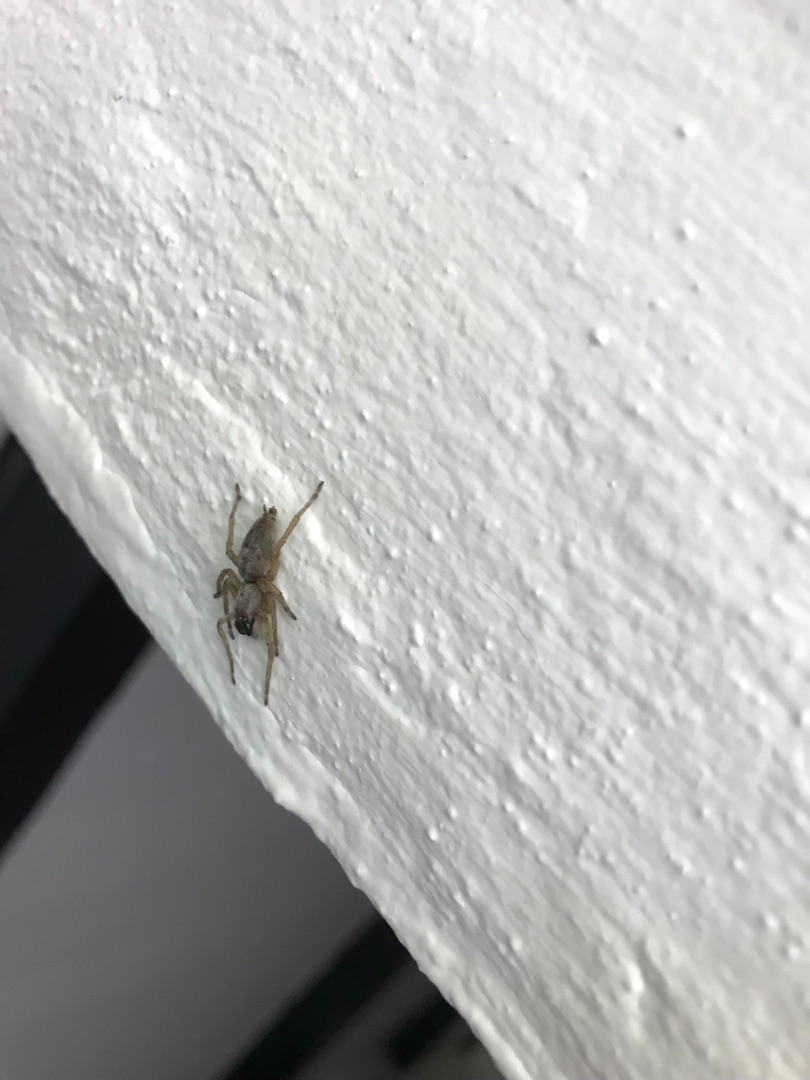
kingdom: Animalia
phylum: Arthropoda
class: Arachnida
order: Araneae
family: Clubionidae
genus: Clubiona
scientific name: Clubiona
